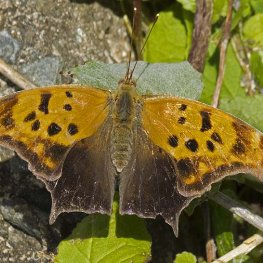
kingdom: Animalia
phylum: Arthropoda
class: Insecta
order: Lepidoptera
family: Nymphalidae
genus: Polygonia
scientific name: Polygonia interrogationis
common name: Question Mark
